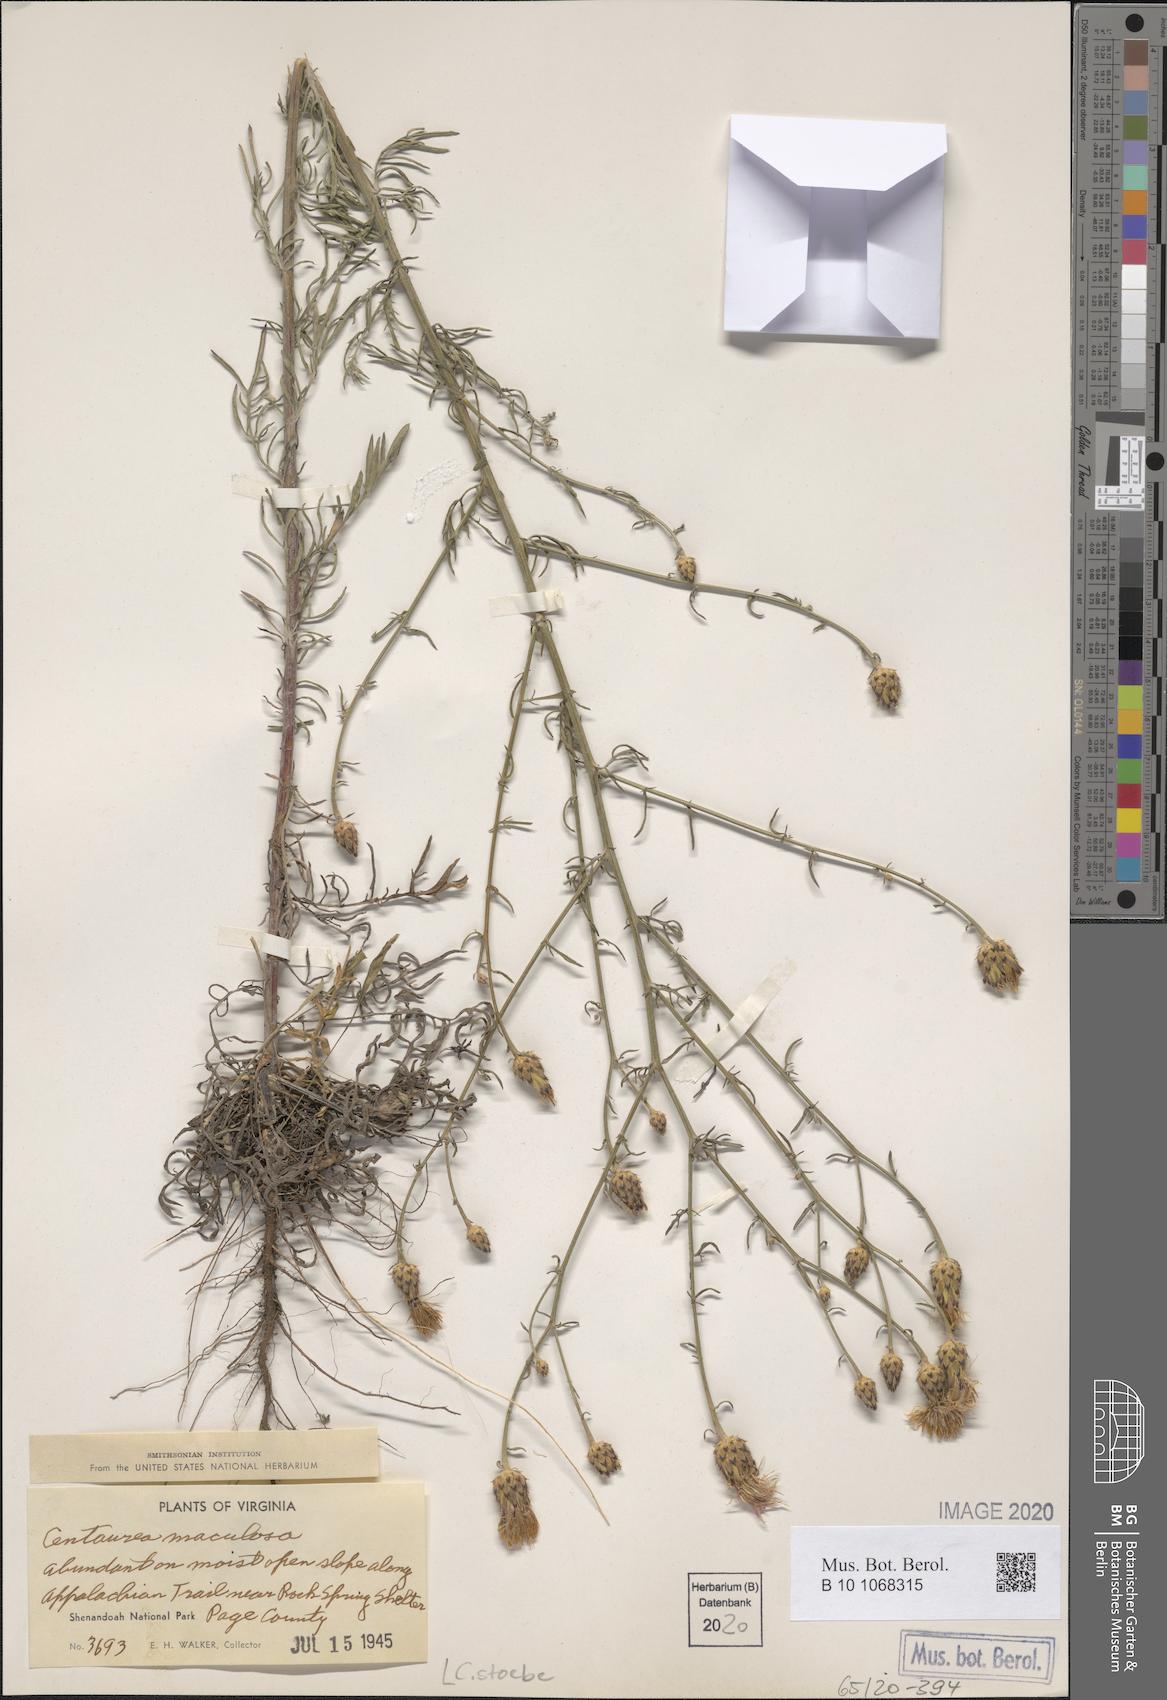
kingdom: Plantae
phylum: Tracheophyta
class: Magnoliopsida
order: Asterales
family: Asteraceae
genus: Centaurea
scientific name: Centaurea stoebe
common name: Spotted knapweed
